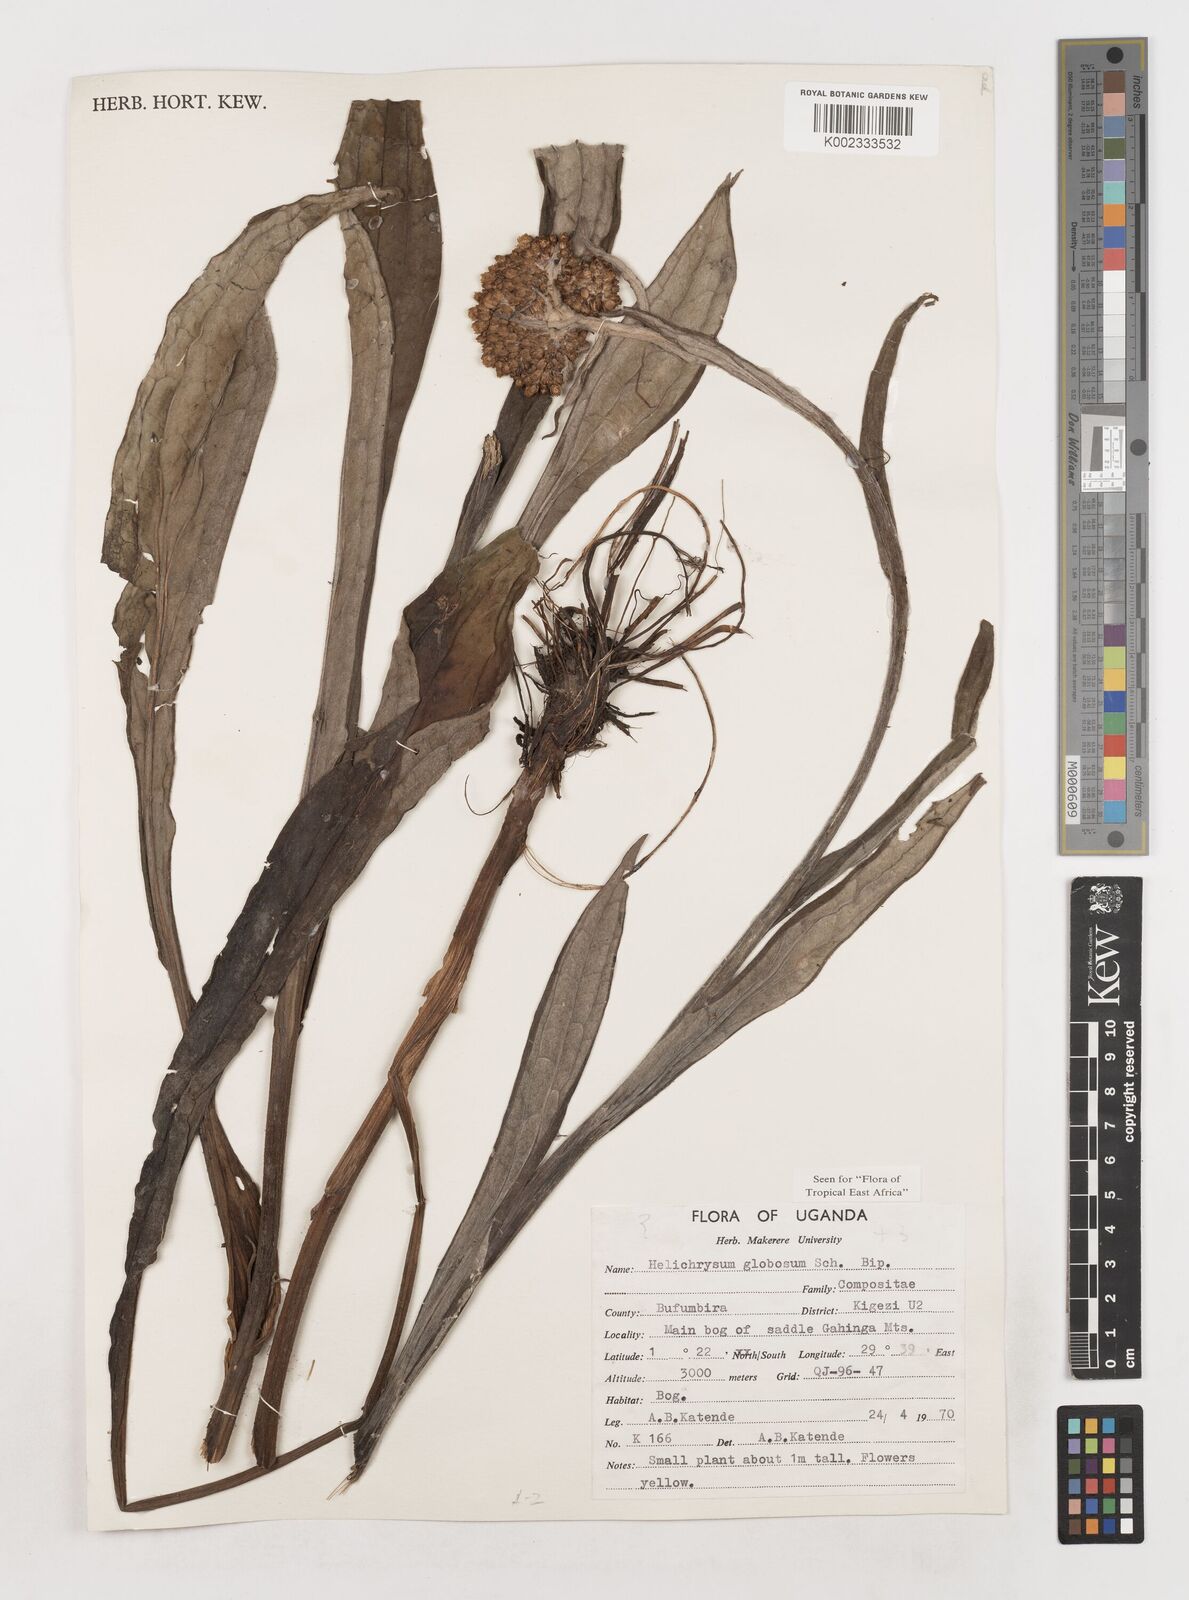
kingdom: Plantae
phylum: Tracheophyta
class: Magnoliopsida
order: Asterales
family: Asteraceae
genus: Helichrysum
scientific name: Helichrysum globosum
